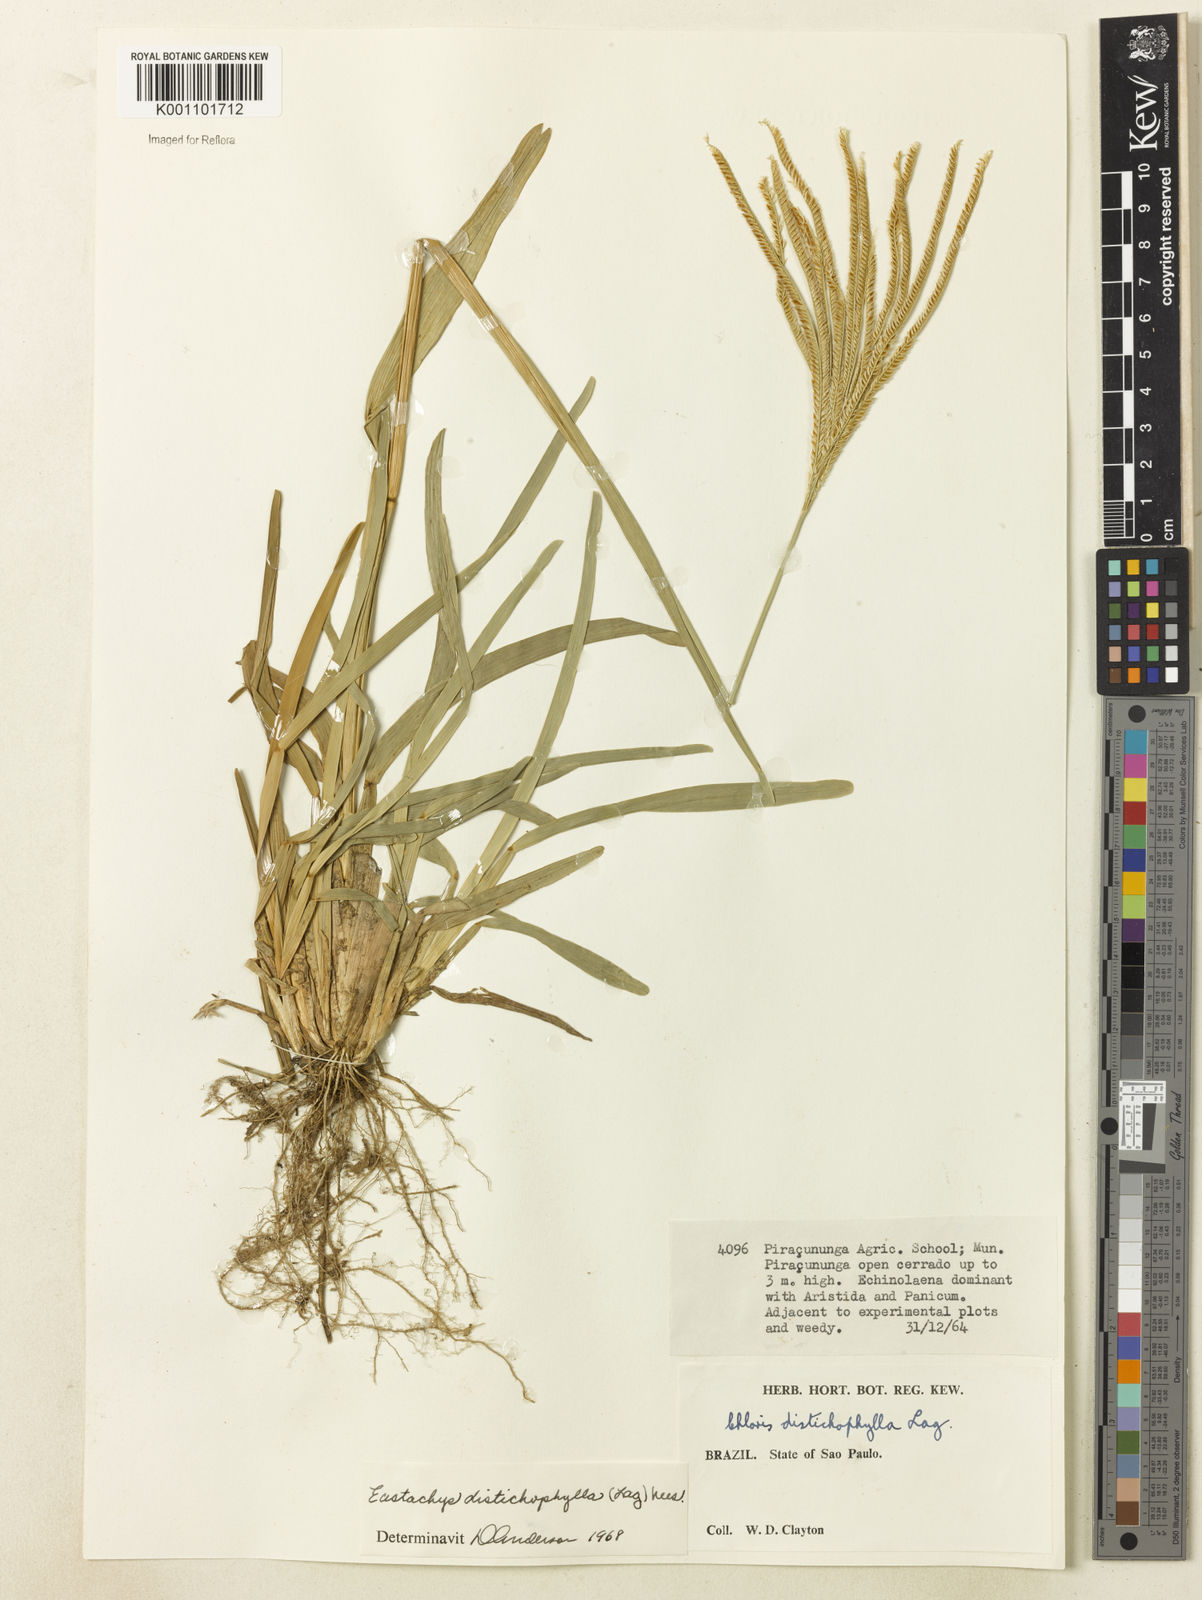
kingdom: Plantae
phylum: Tracheophyta
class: Liliopsida
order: Poales
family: Poaceae
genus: Eustachys
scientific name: Eustachys distichophylla
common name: Weeping fingergrass
